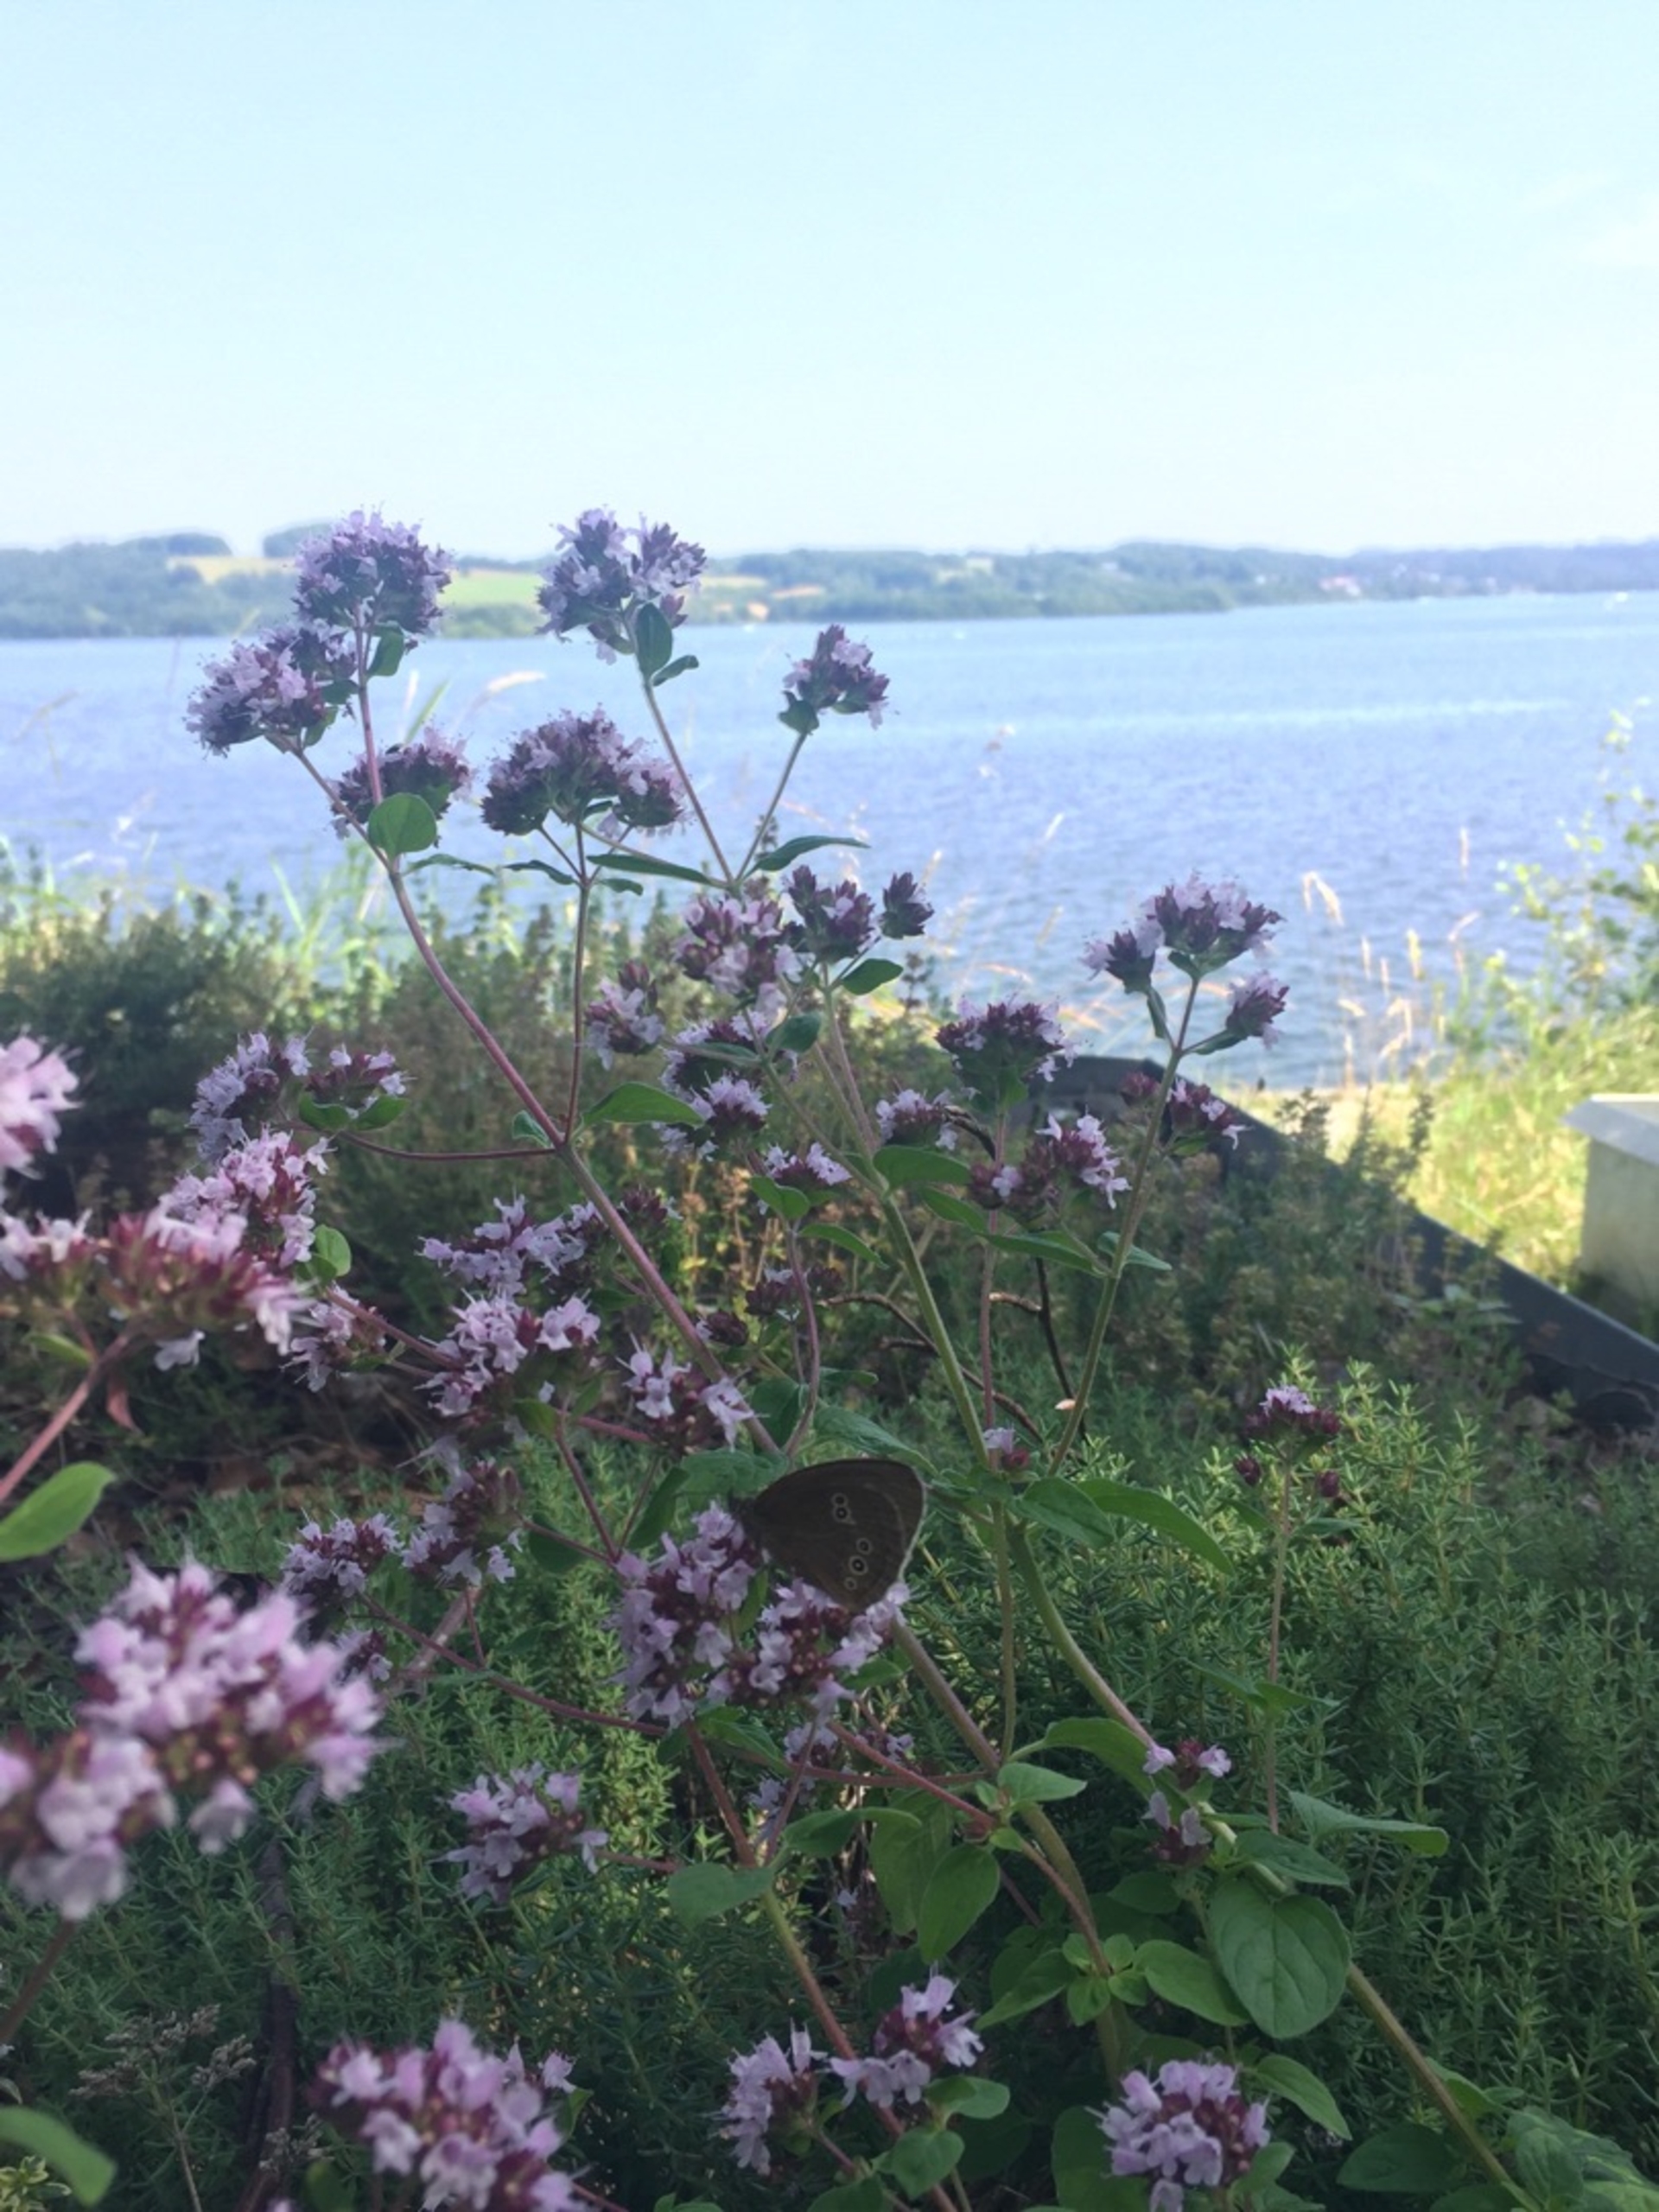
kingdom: Animalia
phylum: Arthropoda
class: Insecta
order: Lepidoptera
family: Nymphalidae
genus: Aphantopus
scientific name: Aphantopus hyperantus
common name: Engrandøje
